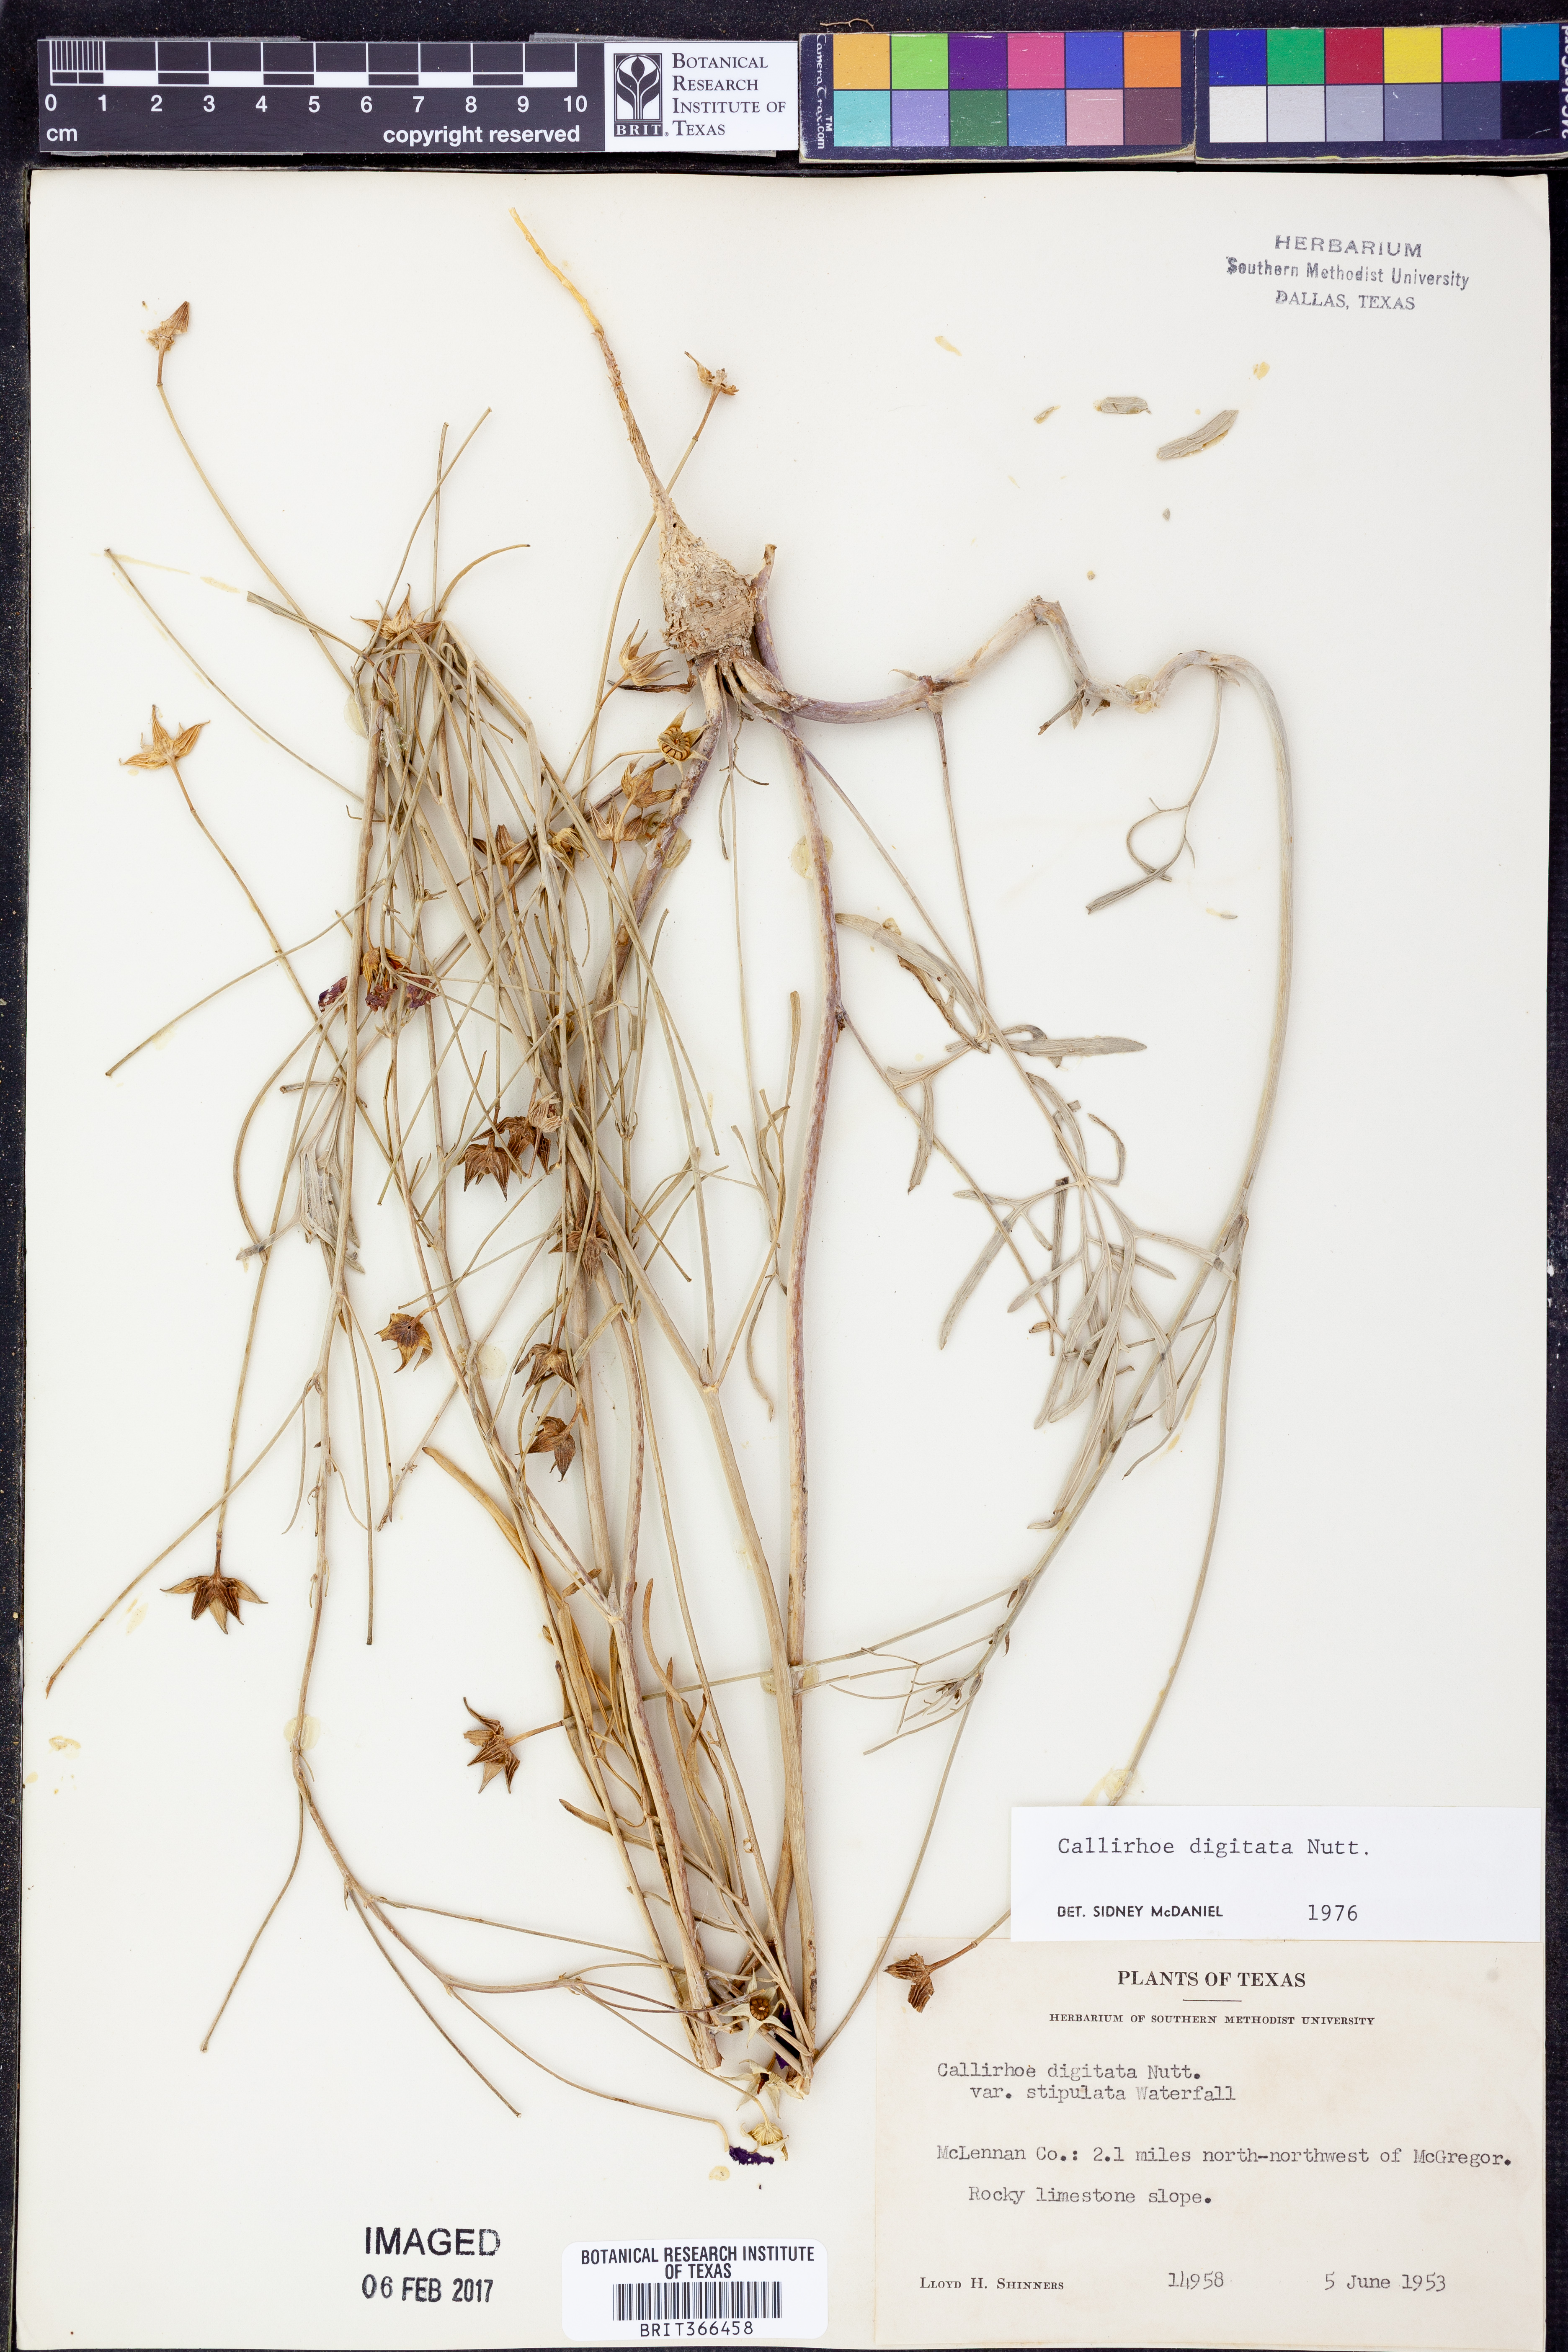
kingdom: Plantae
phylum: Tracheophyta
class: Magnoliopsida
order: Malvales
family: Malvaceae
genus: Callirhoe
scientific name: Callirhoe digitata
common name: Finger poppy-mallow
